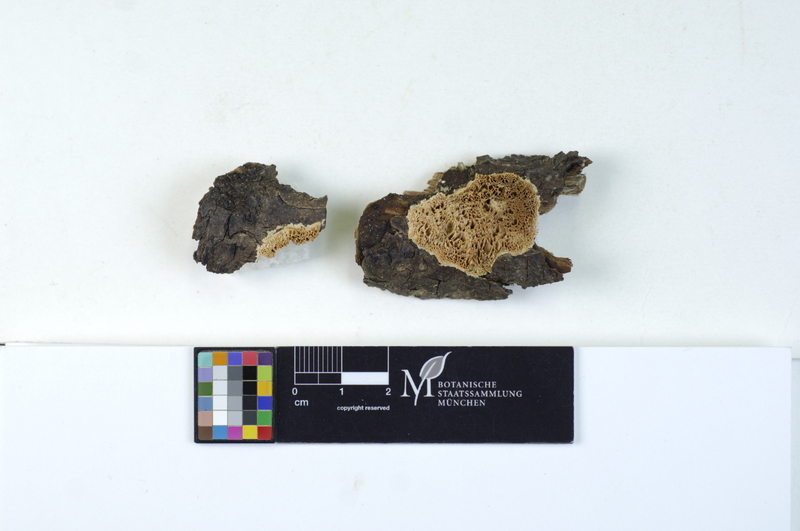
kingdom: Plantae
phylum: Tracheophyta
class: Magnoliopsida
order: Rosales
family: Ulmaceae
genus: Ulmus
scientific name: Ulmus
